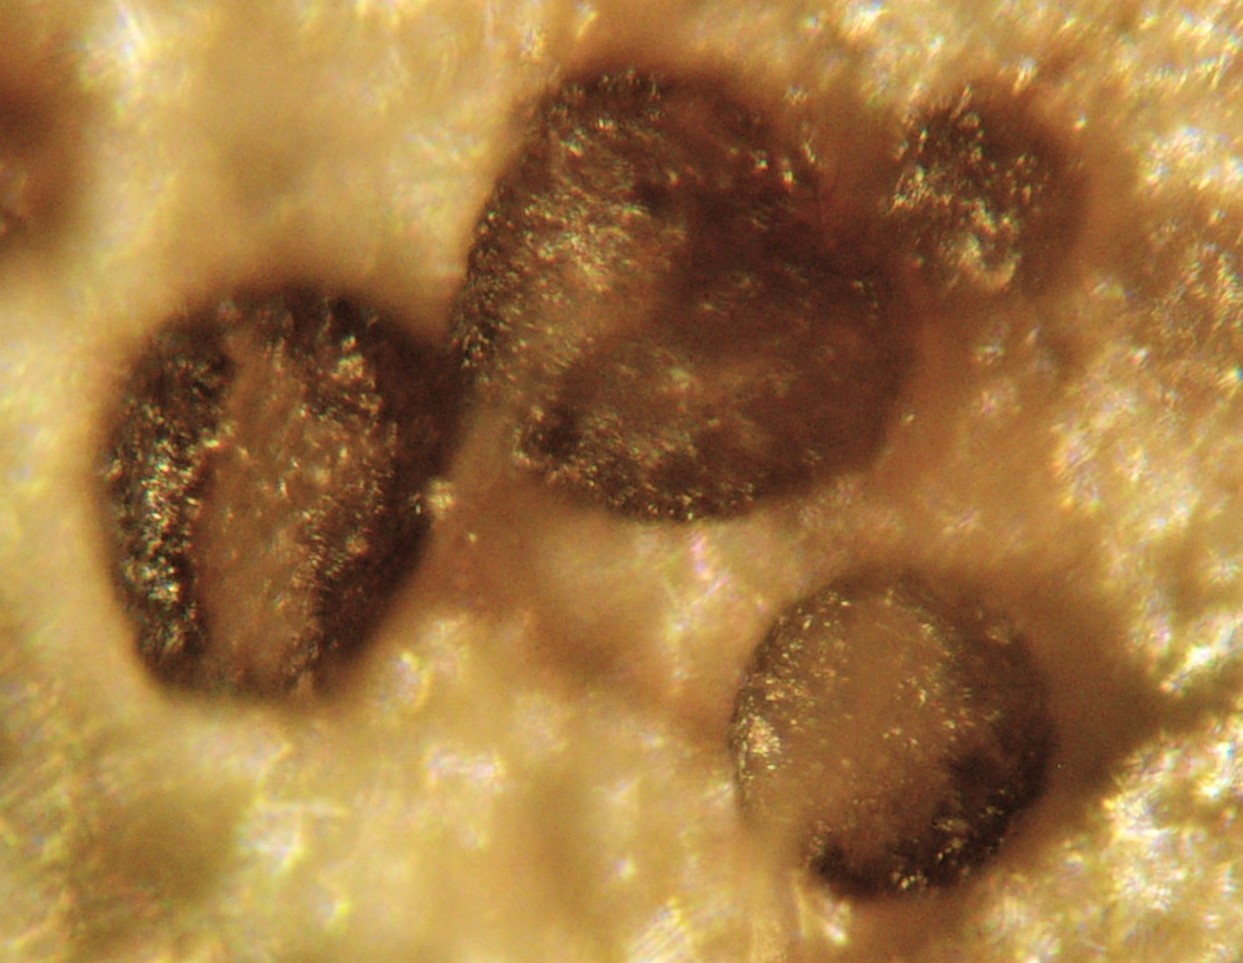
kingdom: Fungi
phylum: Ascomycota
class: Leotiomycetes
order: Helotiales
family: Drepanopezizaceae
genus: Leptotrochila
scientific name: Leptotrochila ranunculi
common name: ranunkel-bladskive
